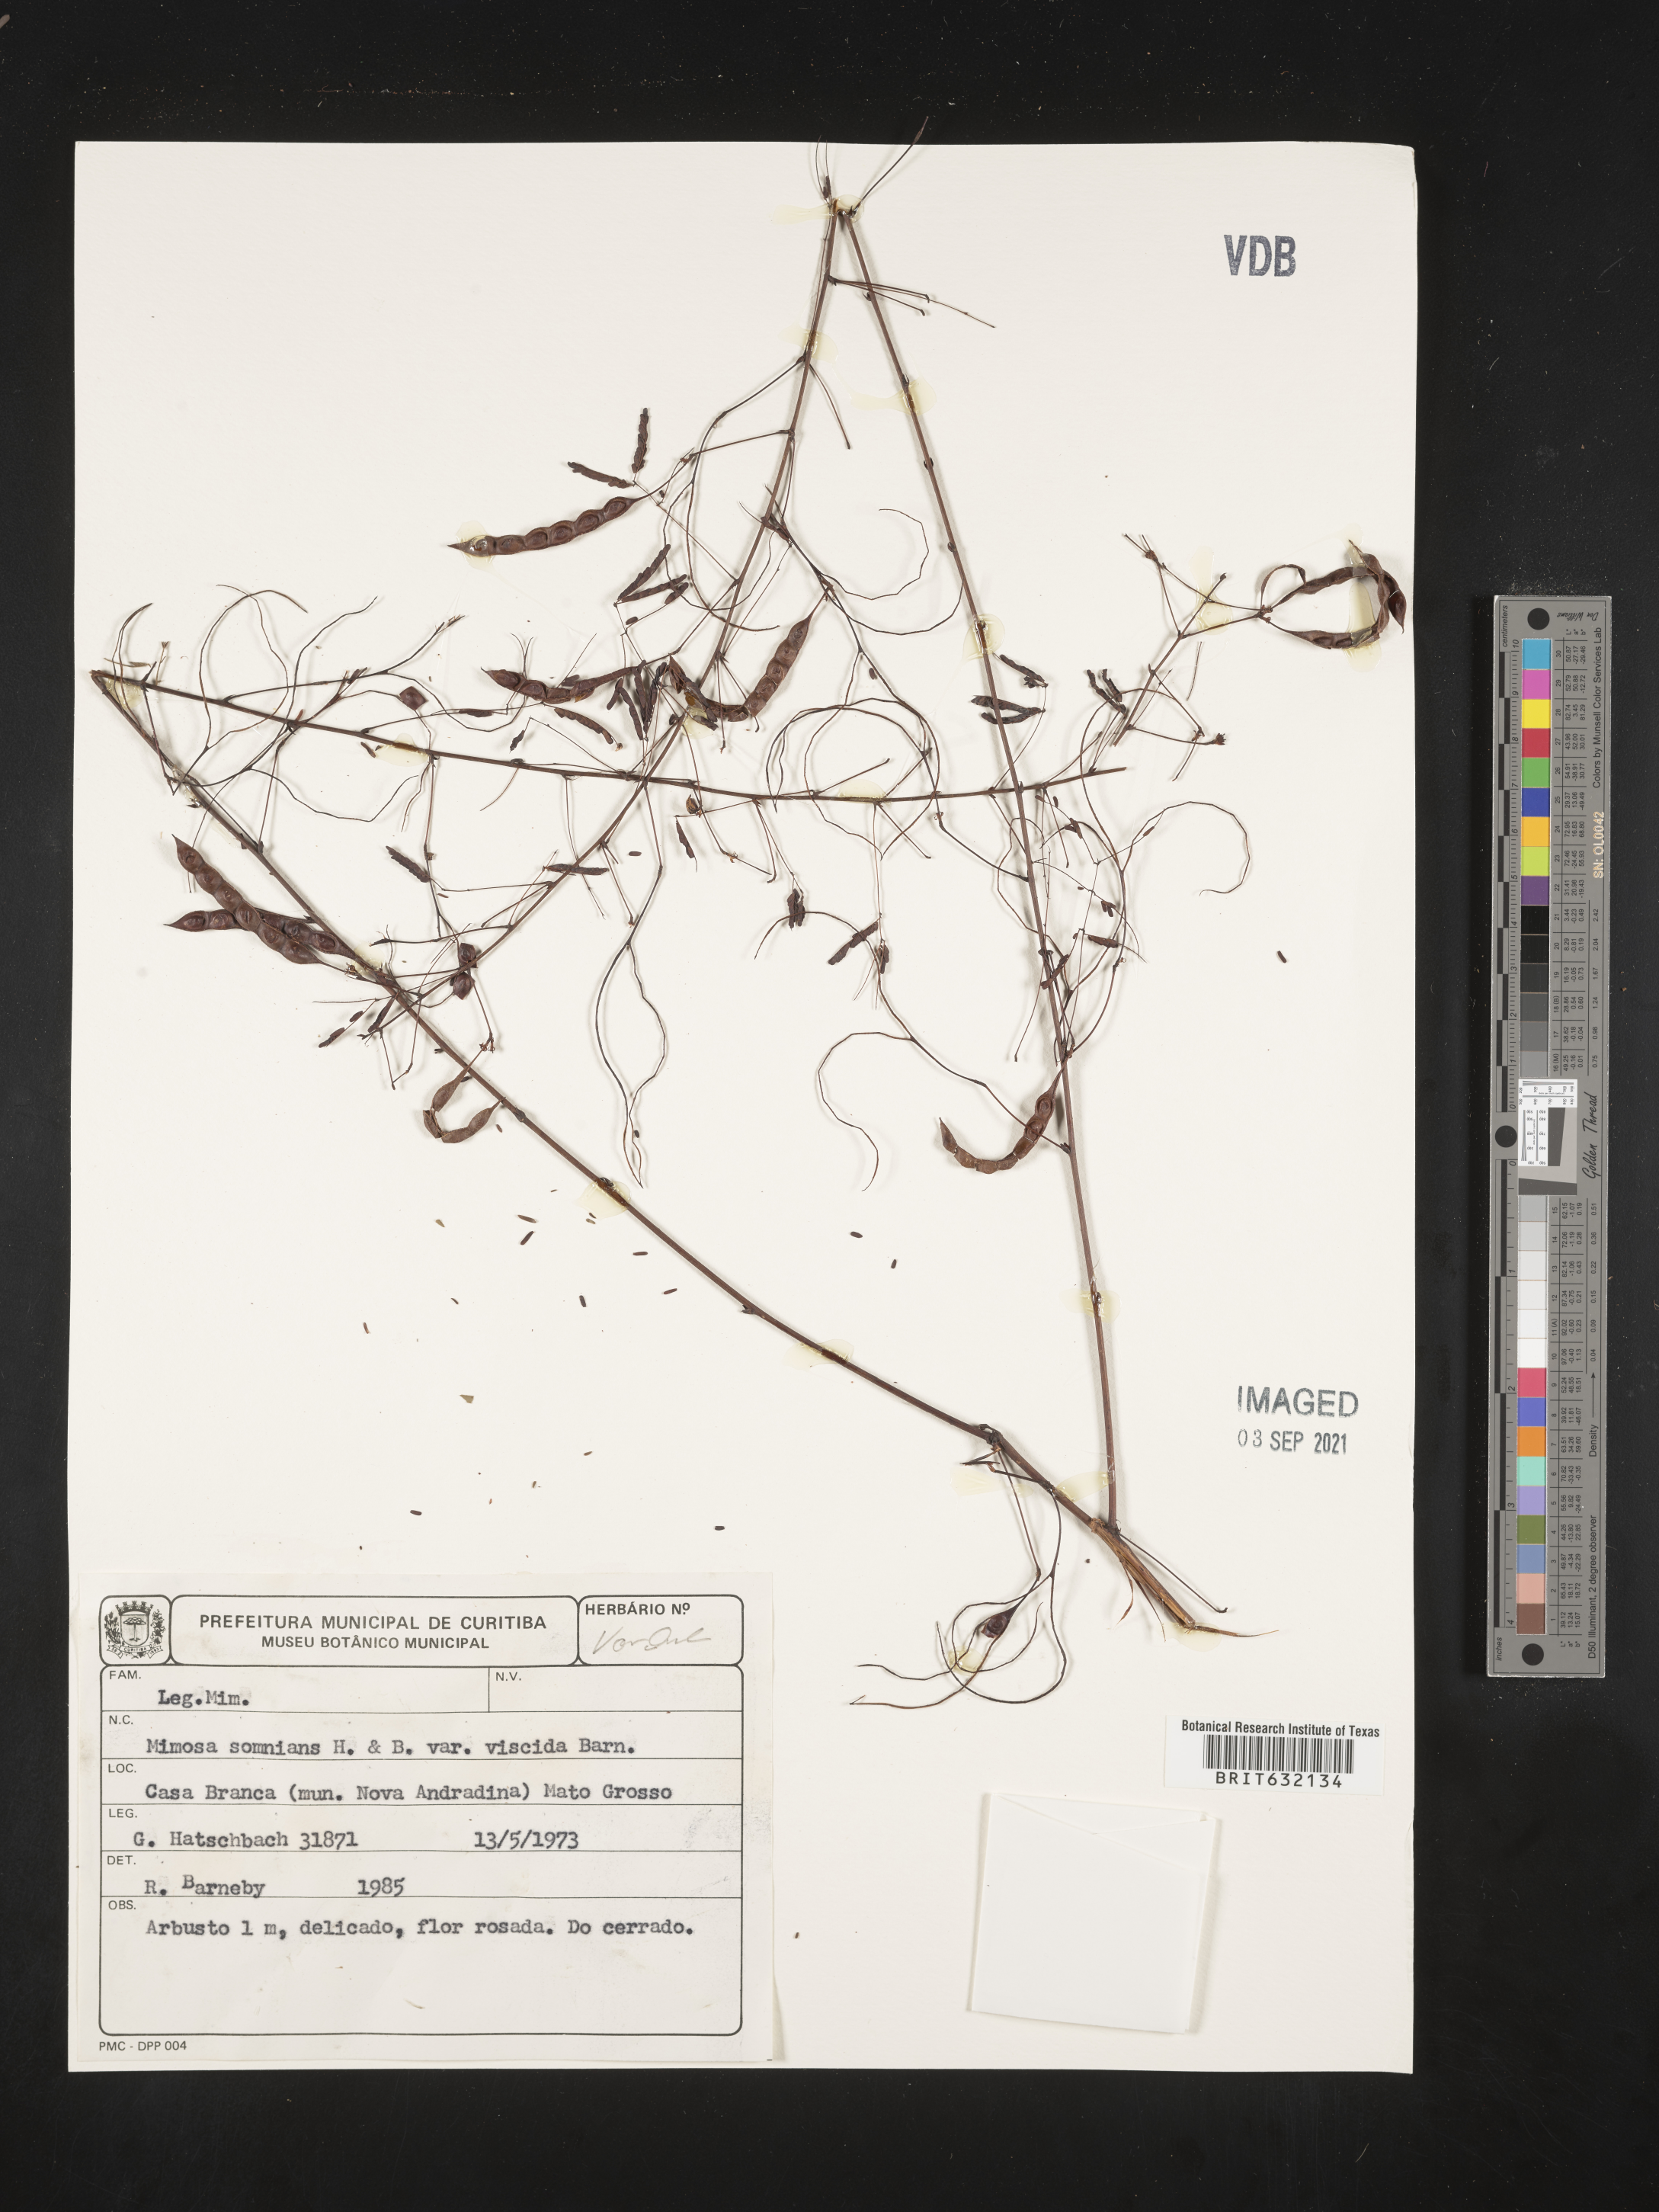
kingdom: Plantae
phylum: Tracheophyta
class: Magnoliopsida
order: Fabales
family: Fabaceae
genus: Mimosa
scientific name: Mimosa
